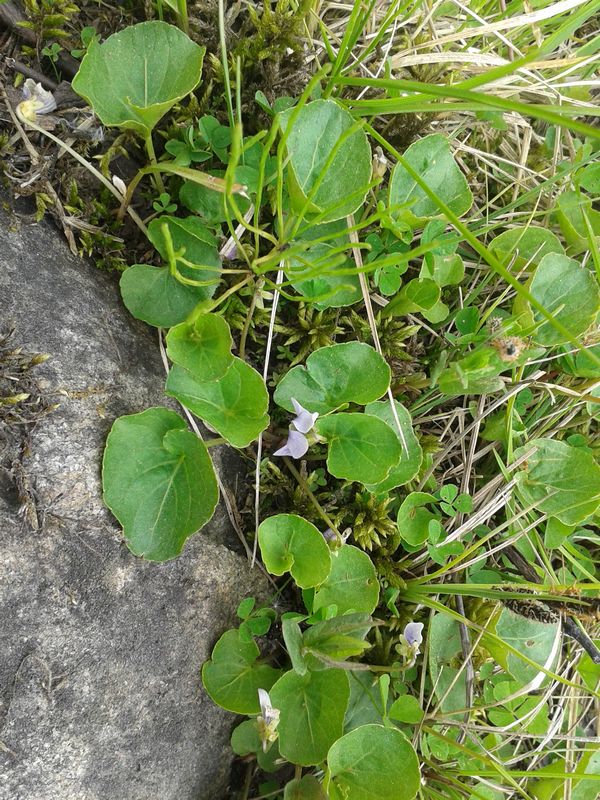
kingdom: Plantae
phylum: Tracheophyta
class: Magnoliopsida
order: Malpighiales
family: Violaceae
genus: Viola
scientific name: Viola palustris
